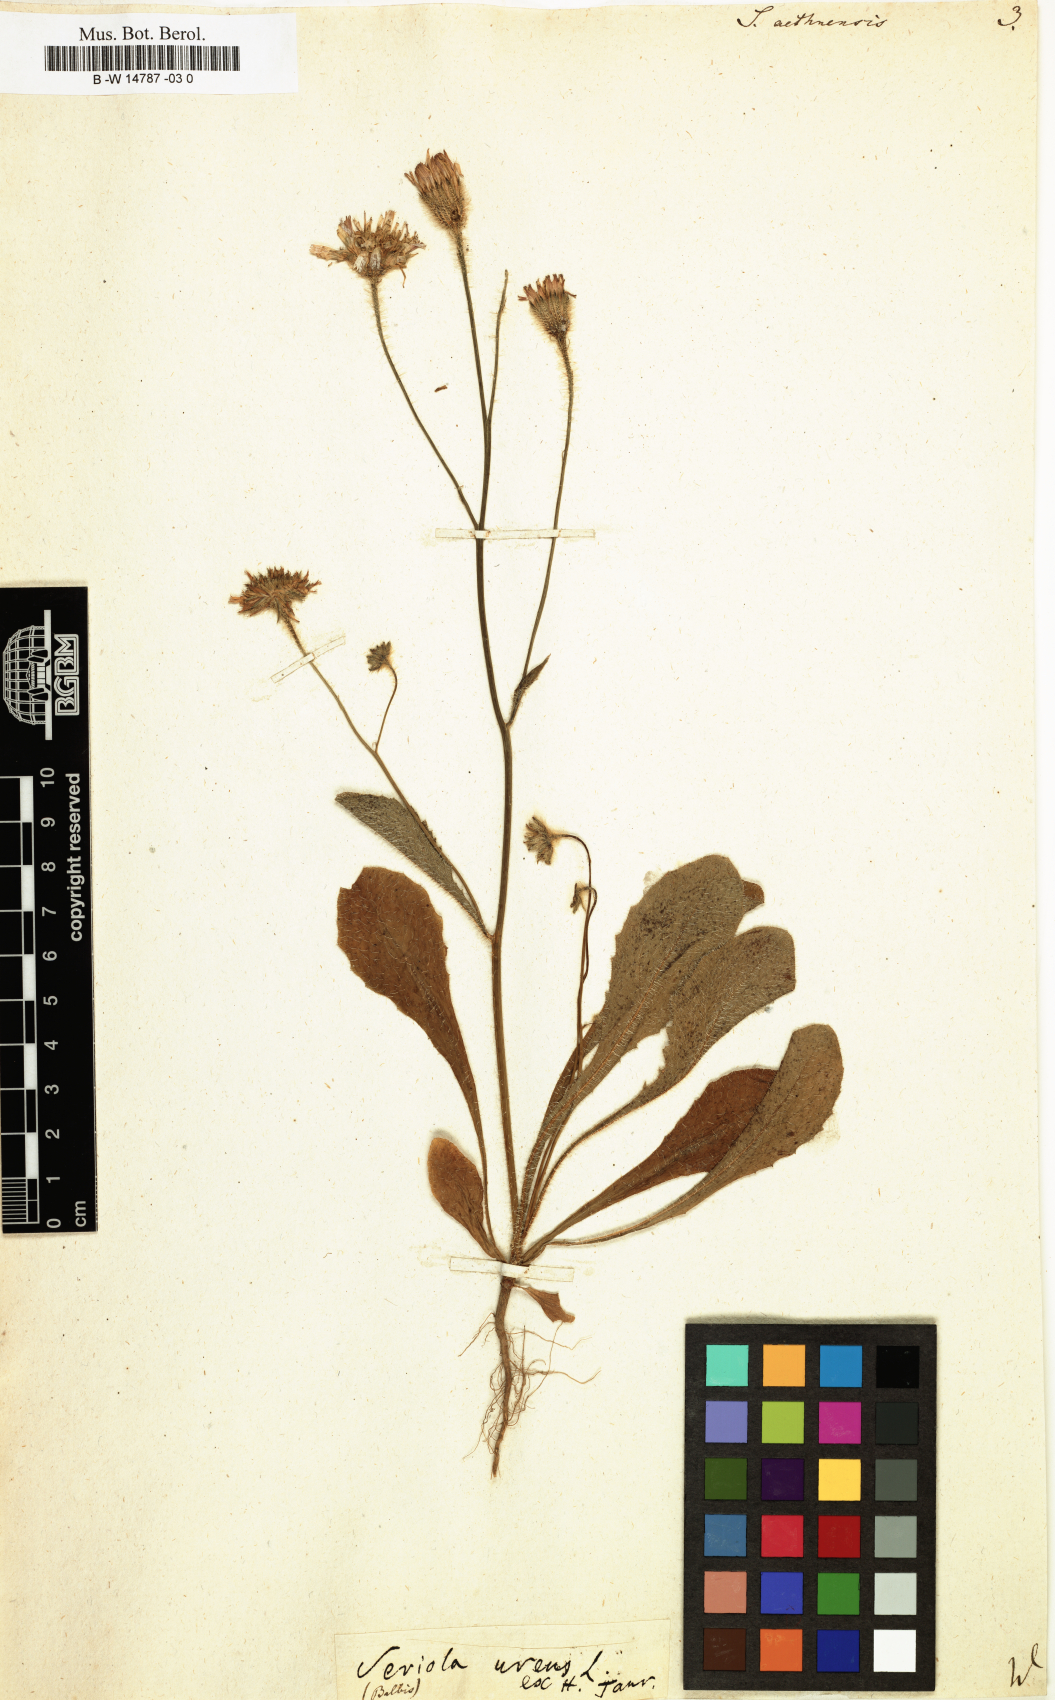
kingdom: Plantae
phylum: Tracheophyta
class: Magnoliopsida
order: Asterales
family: Asteraceae
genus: Achyrophorus
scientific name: Achyrophorus valdesii
